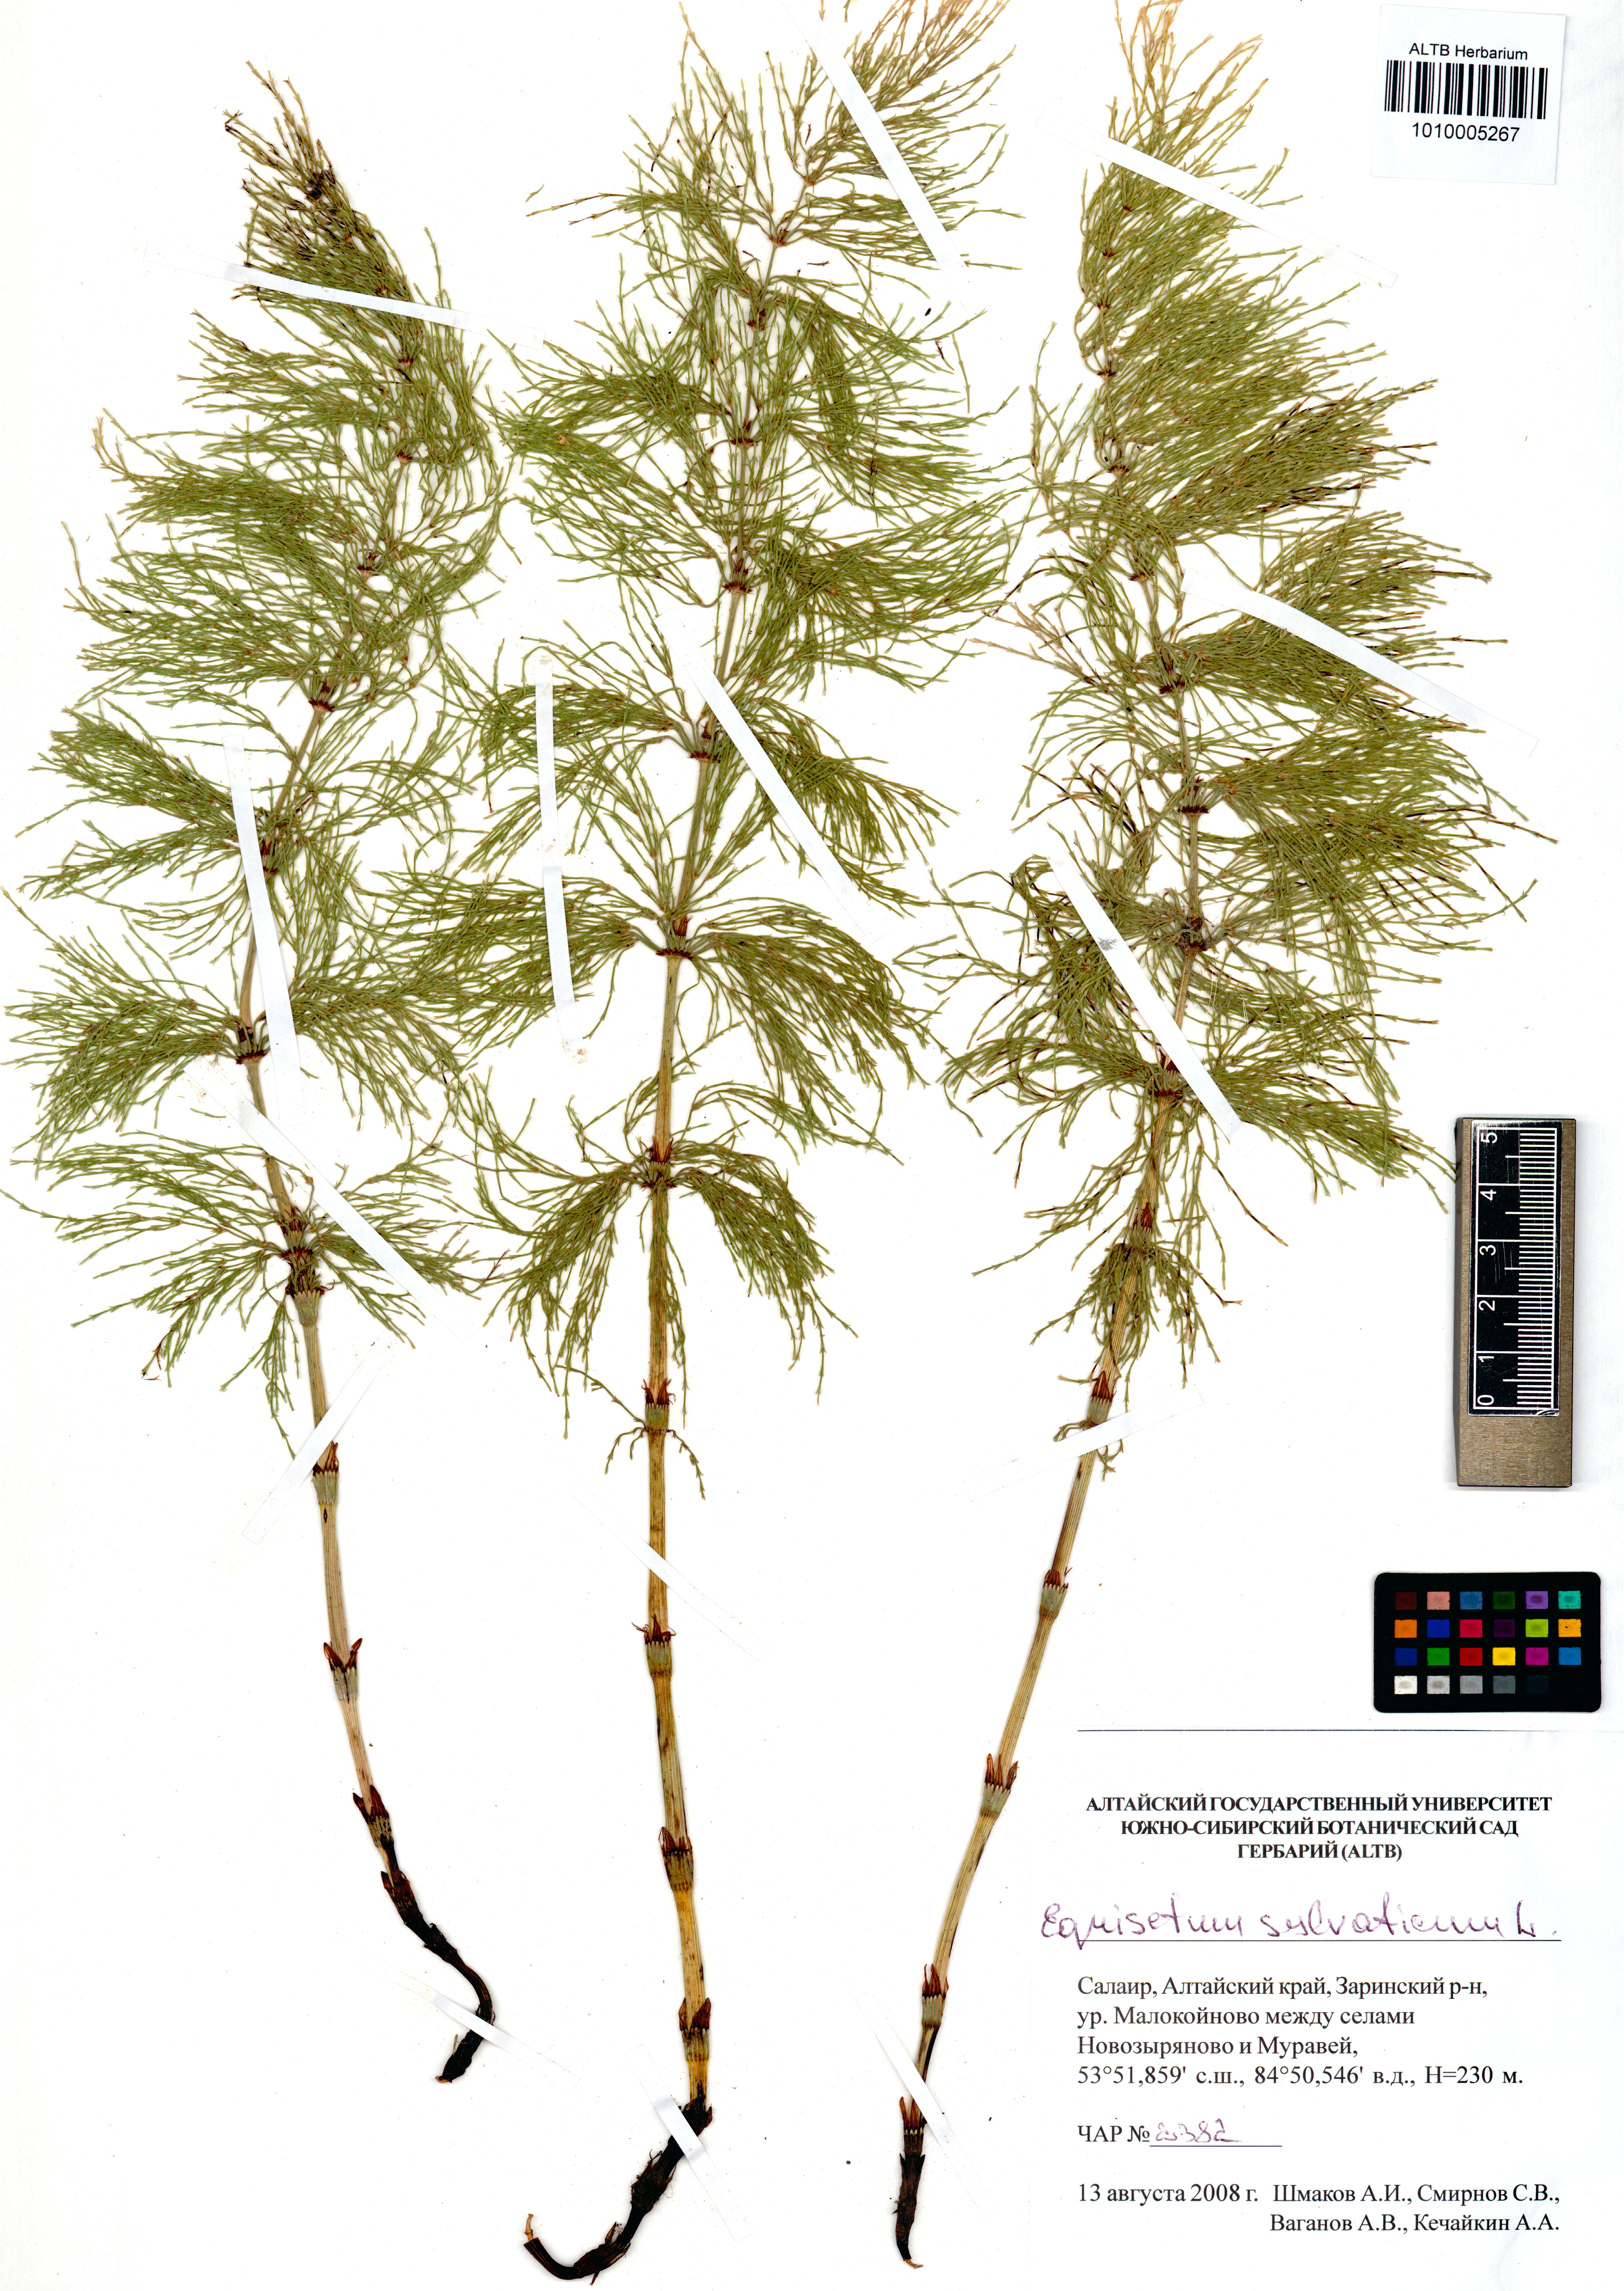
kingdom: Plantae
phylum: Tracheophyta
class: Polypodiopsida
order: Equisetales
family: Equisetaceae
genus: Equisetum
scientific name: Equisetum sylvaticum
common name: Wood horsetail
